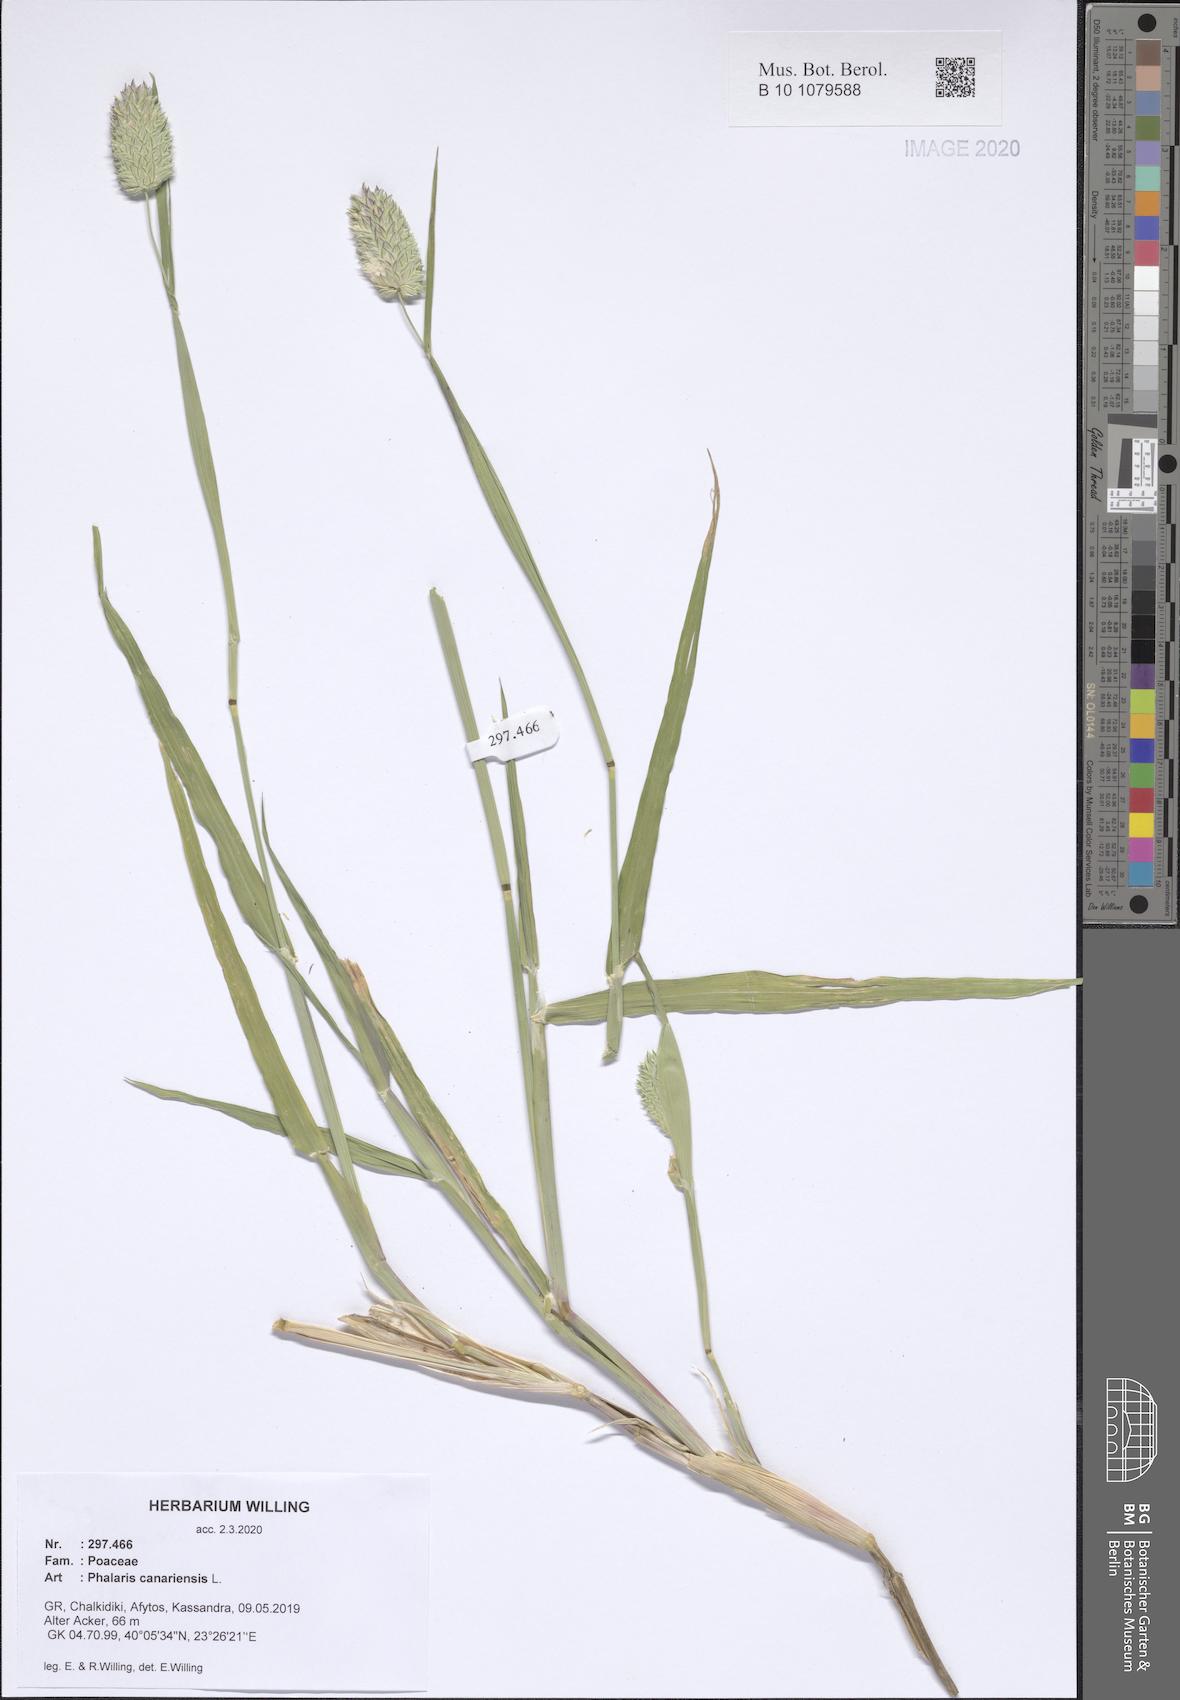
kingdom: Plantae
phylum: Tracheophyta
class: Liliopsida
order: Poales
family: Poaceae
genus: Phalaris
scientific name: Phalaris canariensis
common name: Annual canarygrass
